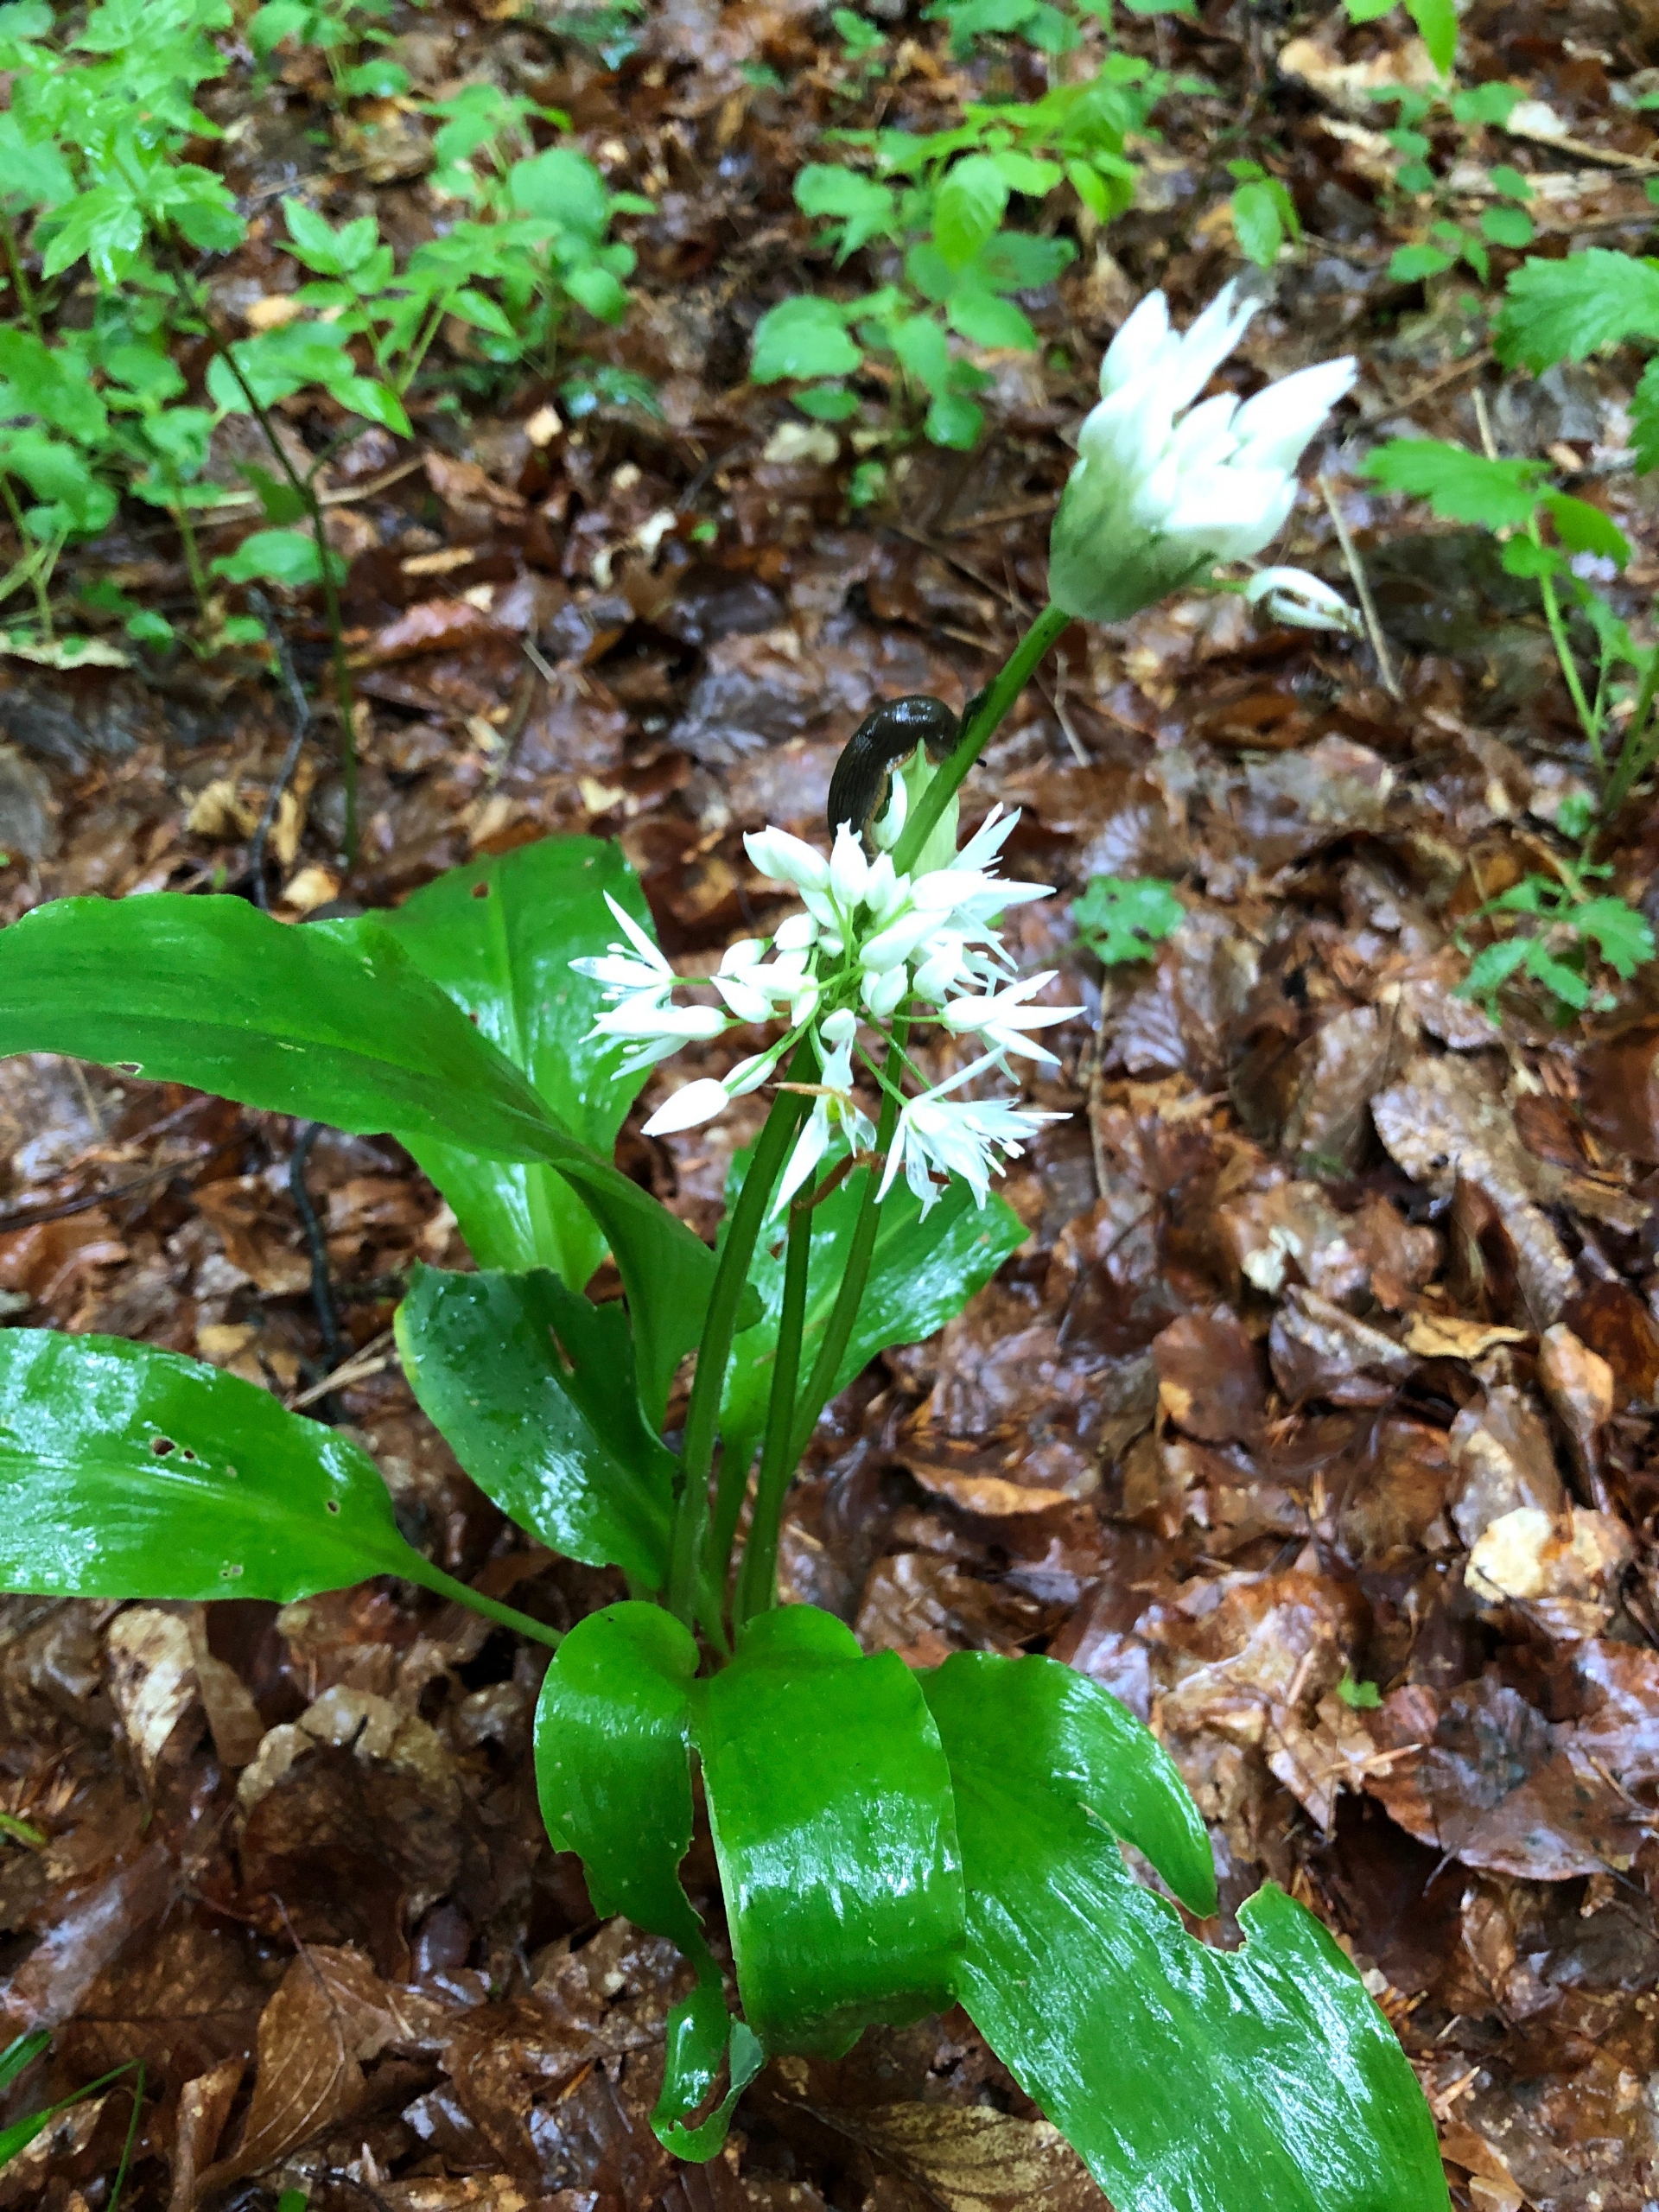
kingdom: Plantae
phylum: Tracheophyta
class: Liliopsida
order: Asparagales
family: Amaryllidaceae
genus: Allium
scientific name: Allium ursinum
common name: Rams-løg
